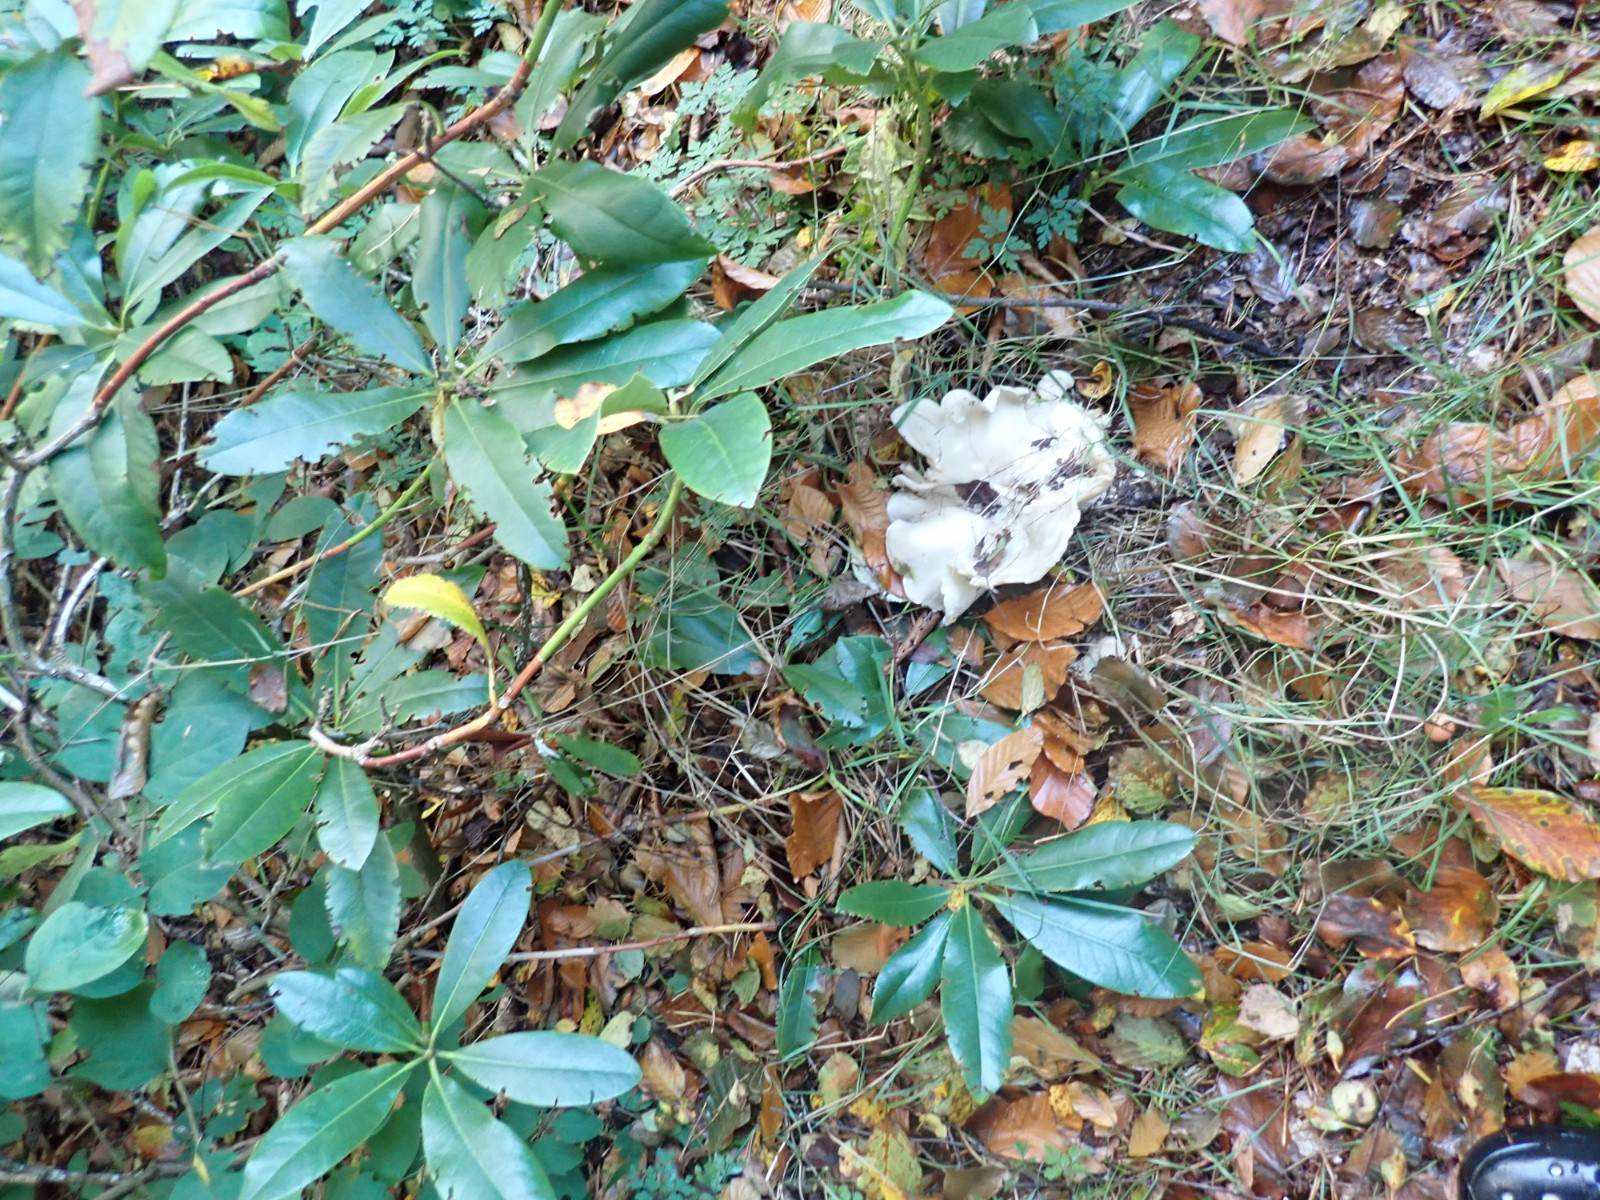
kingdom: Fungi
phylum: Basidiomycota
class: Agaricomycetes
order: Agaricales
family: Tricholomataceae
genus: Aspropaxillus
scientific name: Aspropaxillus giganteus
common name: kæmpe-tragtridderhat
